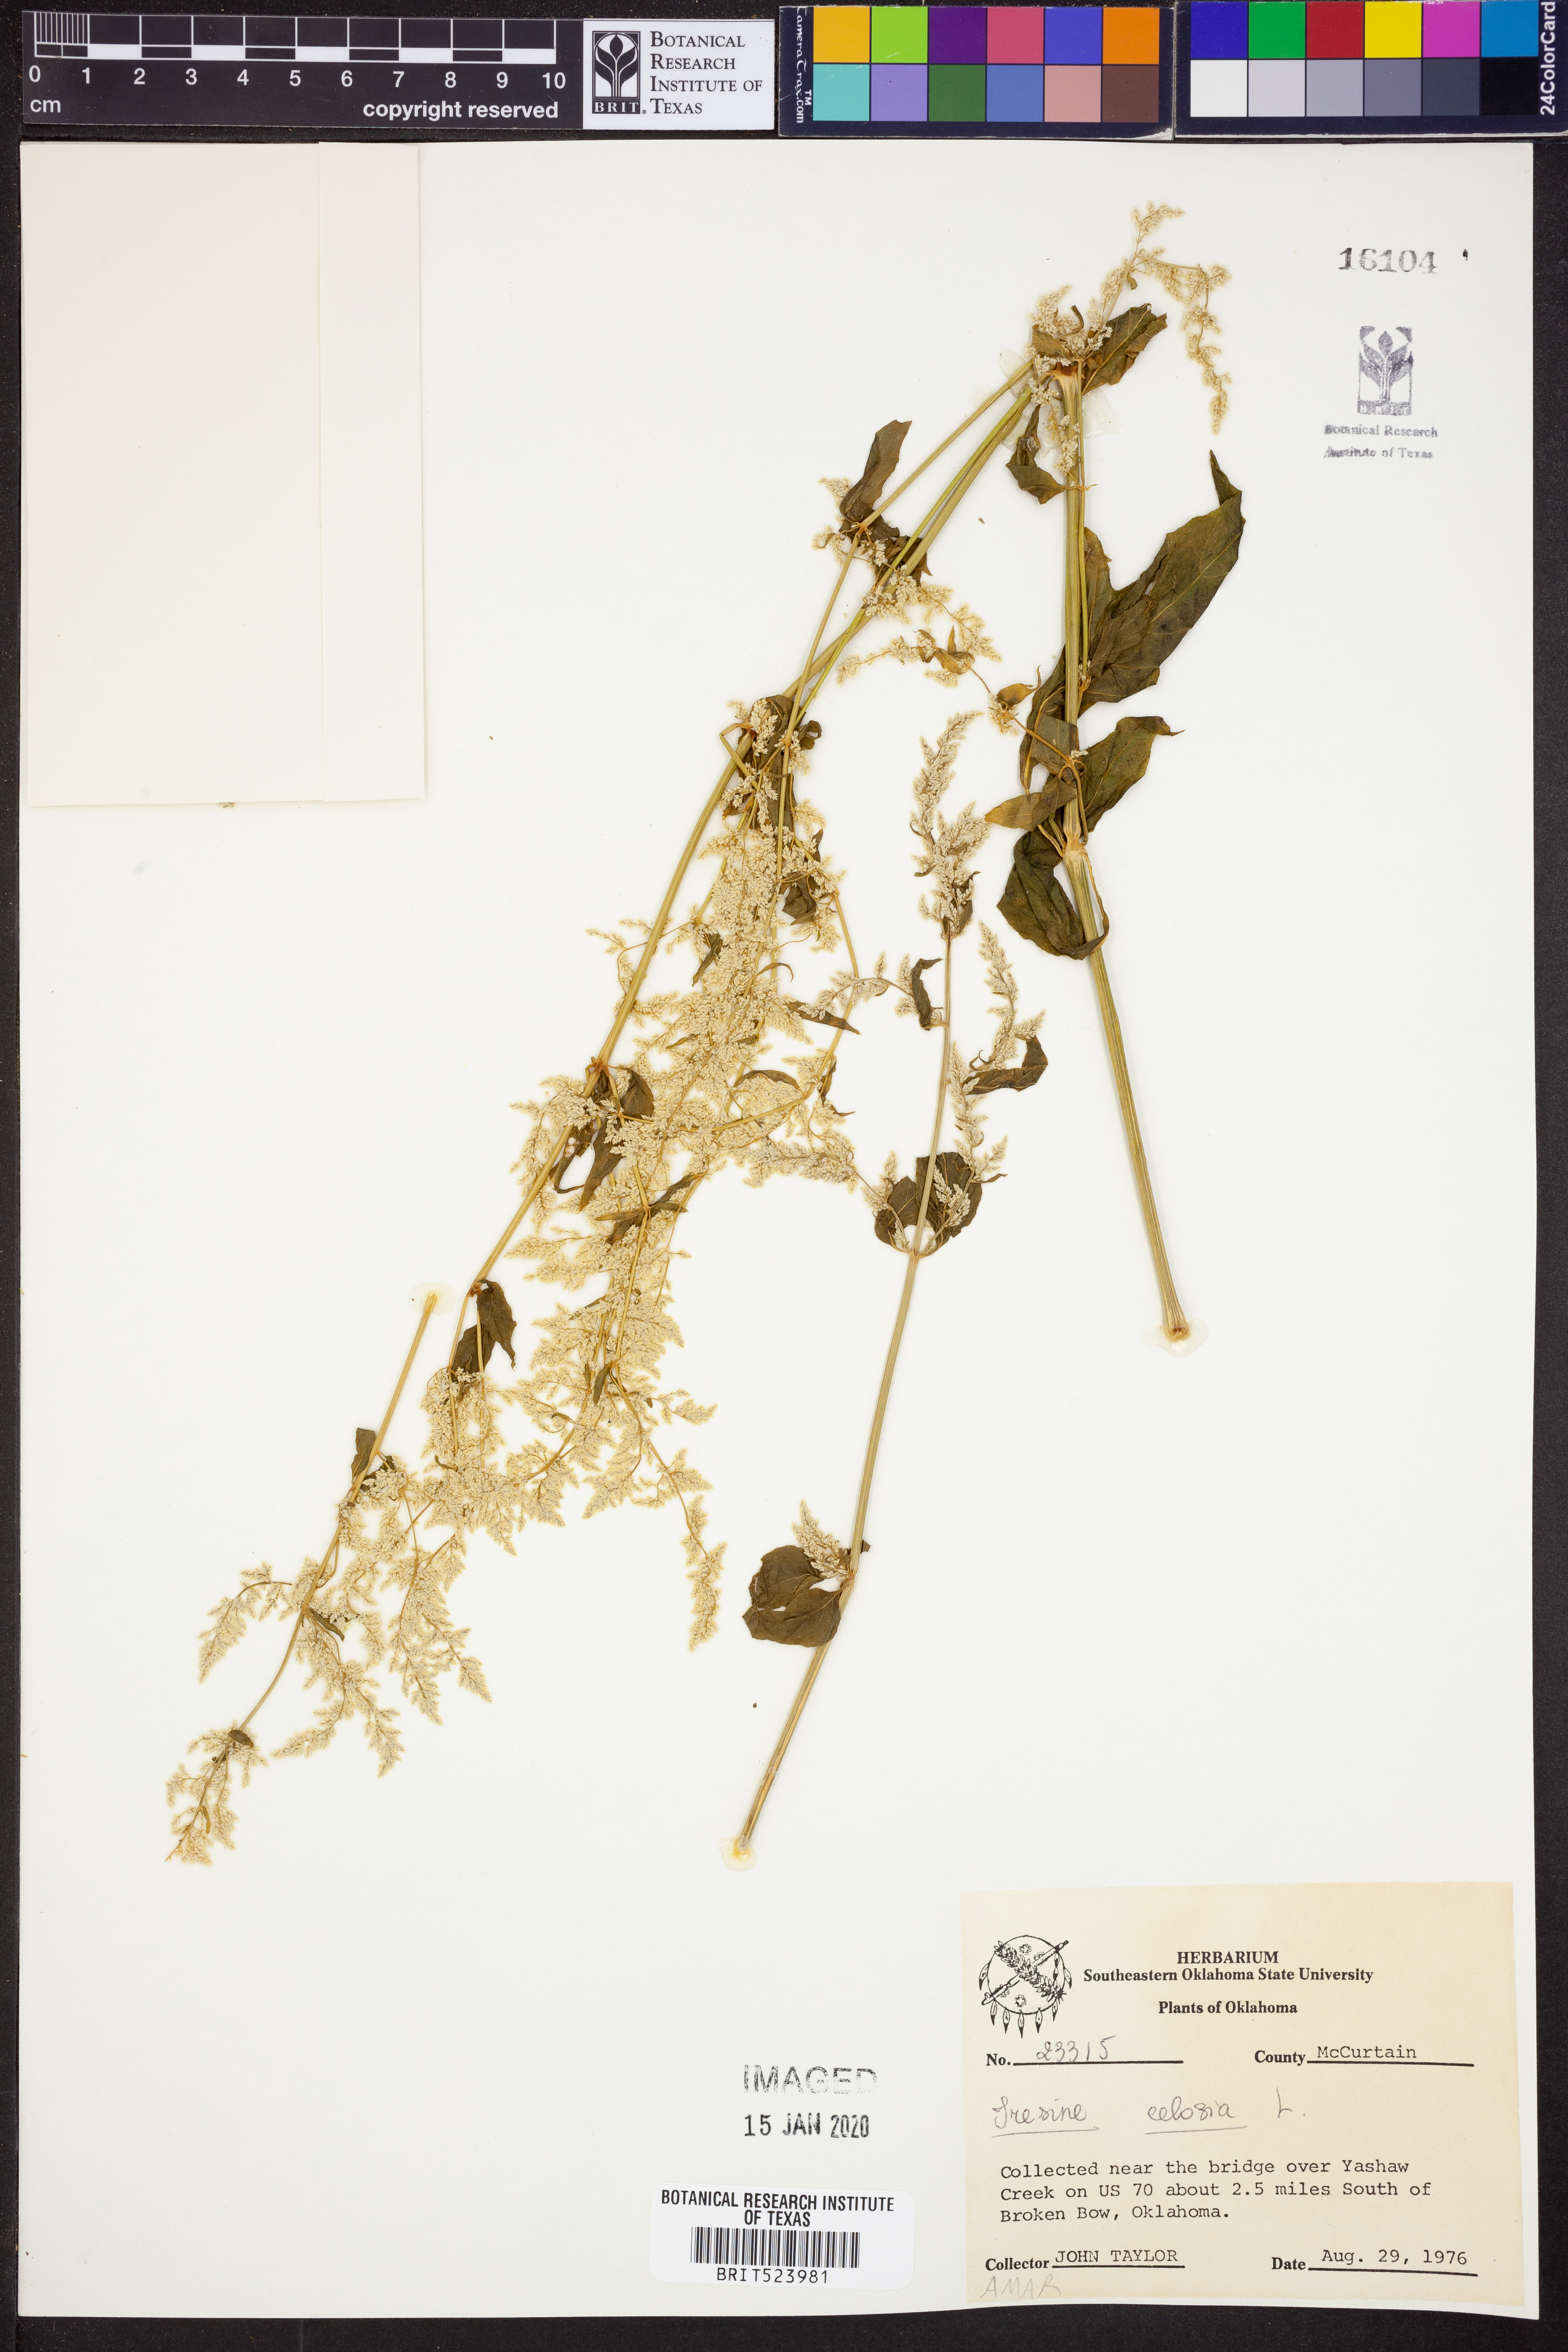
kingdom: Plantae
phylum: Tracheophyta
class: Magnoliopsida
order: Caryophyllales
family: Amaranthaceae
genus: Iresine
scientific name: Iresine rhizomatosa
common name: Juda's-bush
